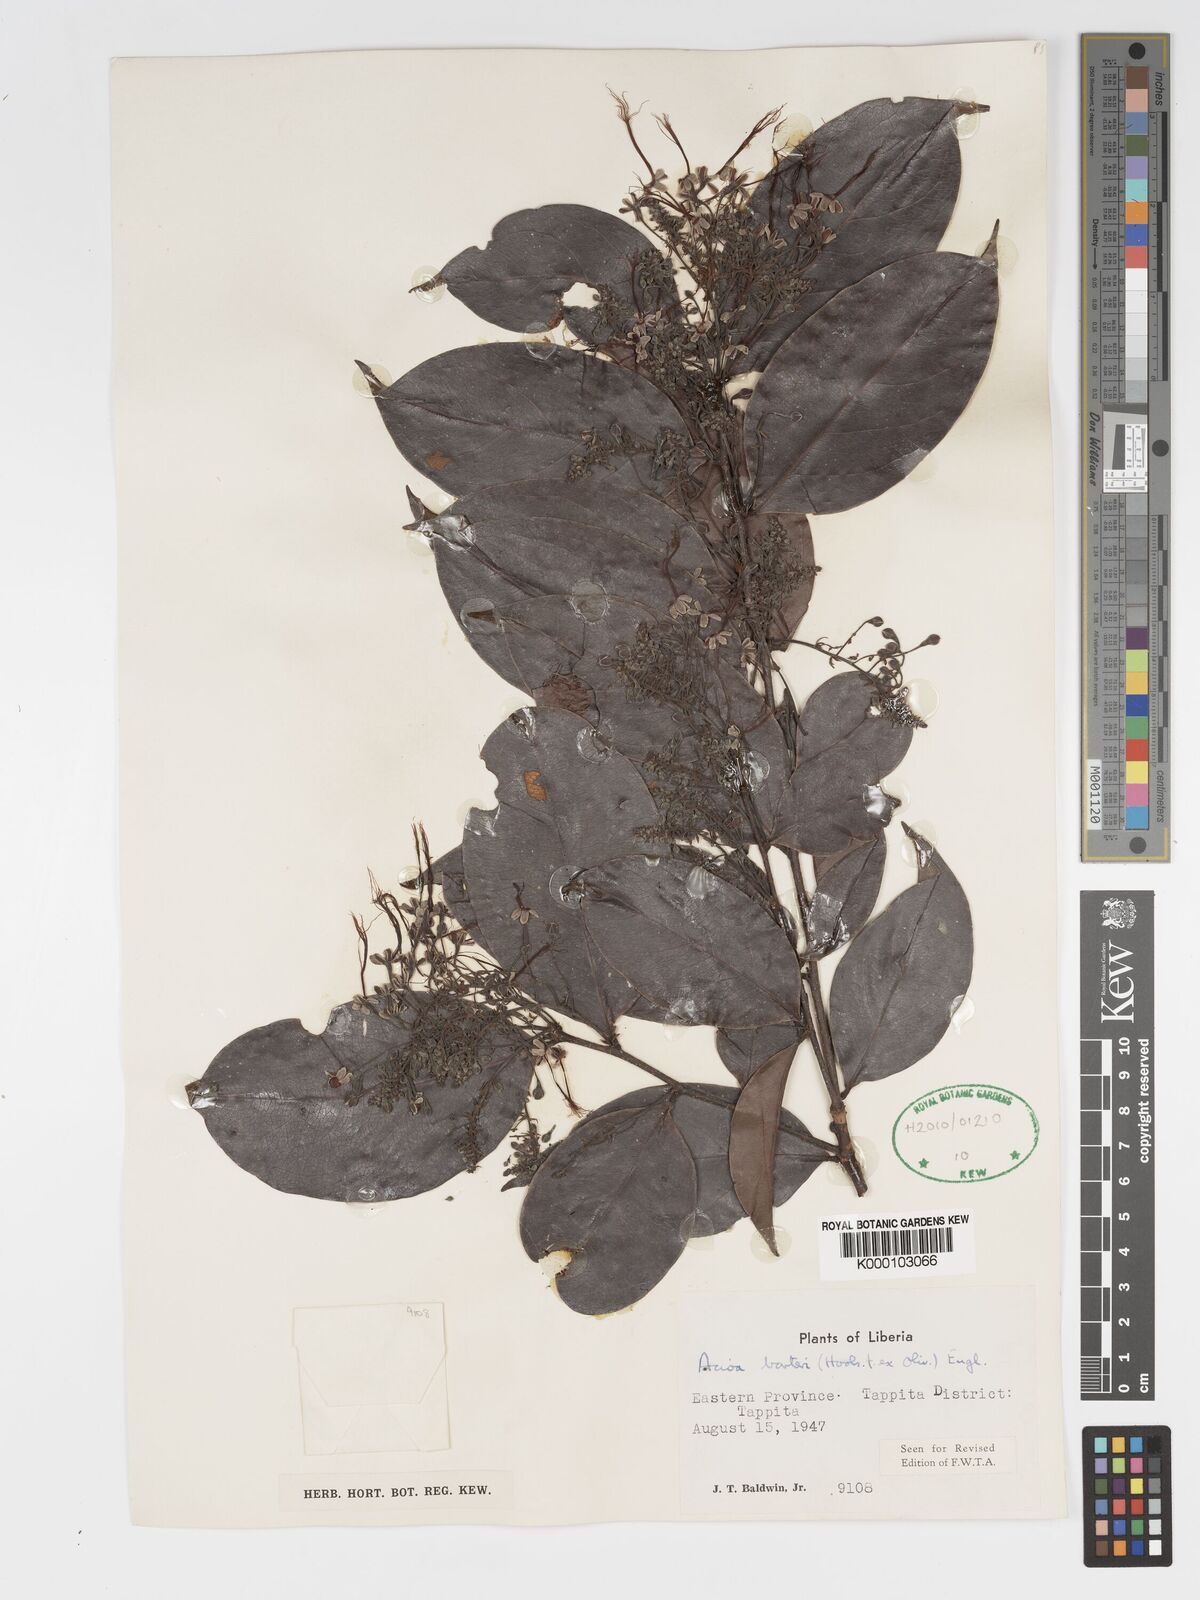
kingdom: Plantae
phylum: Tracheophyta
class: Magnoliopsida
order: Malpighiales
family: Chrysobalanaceae
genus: Dactyladenia
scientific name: Dactyladenia barteri
